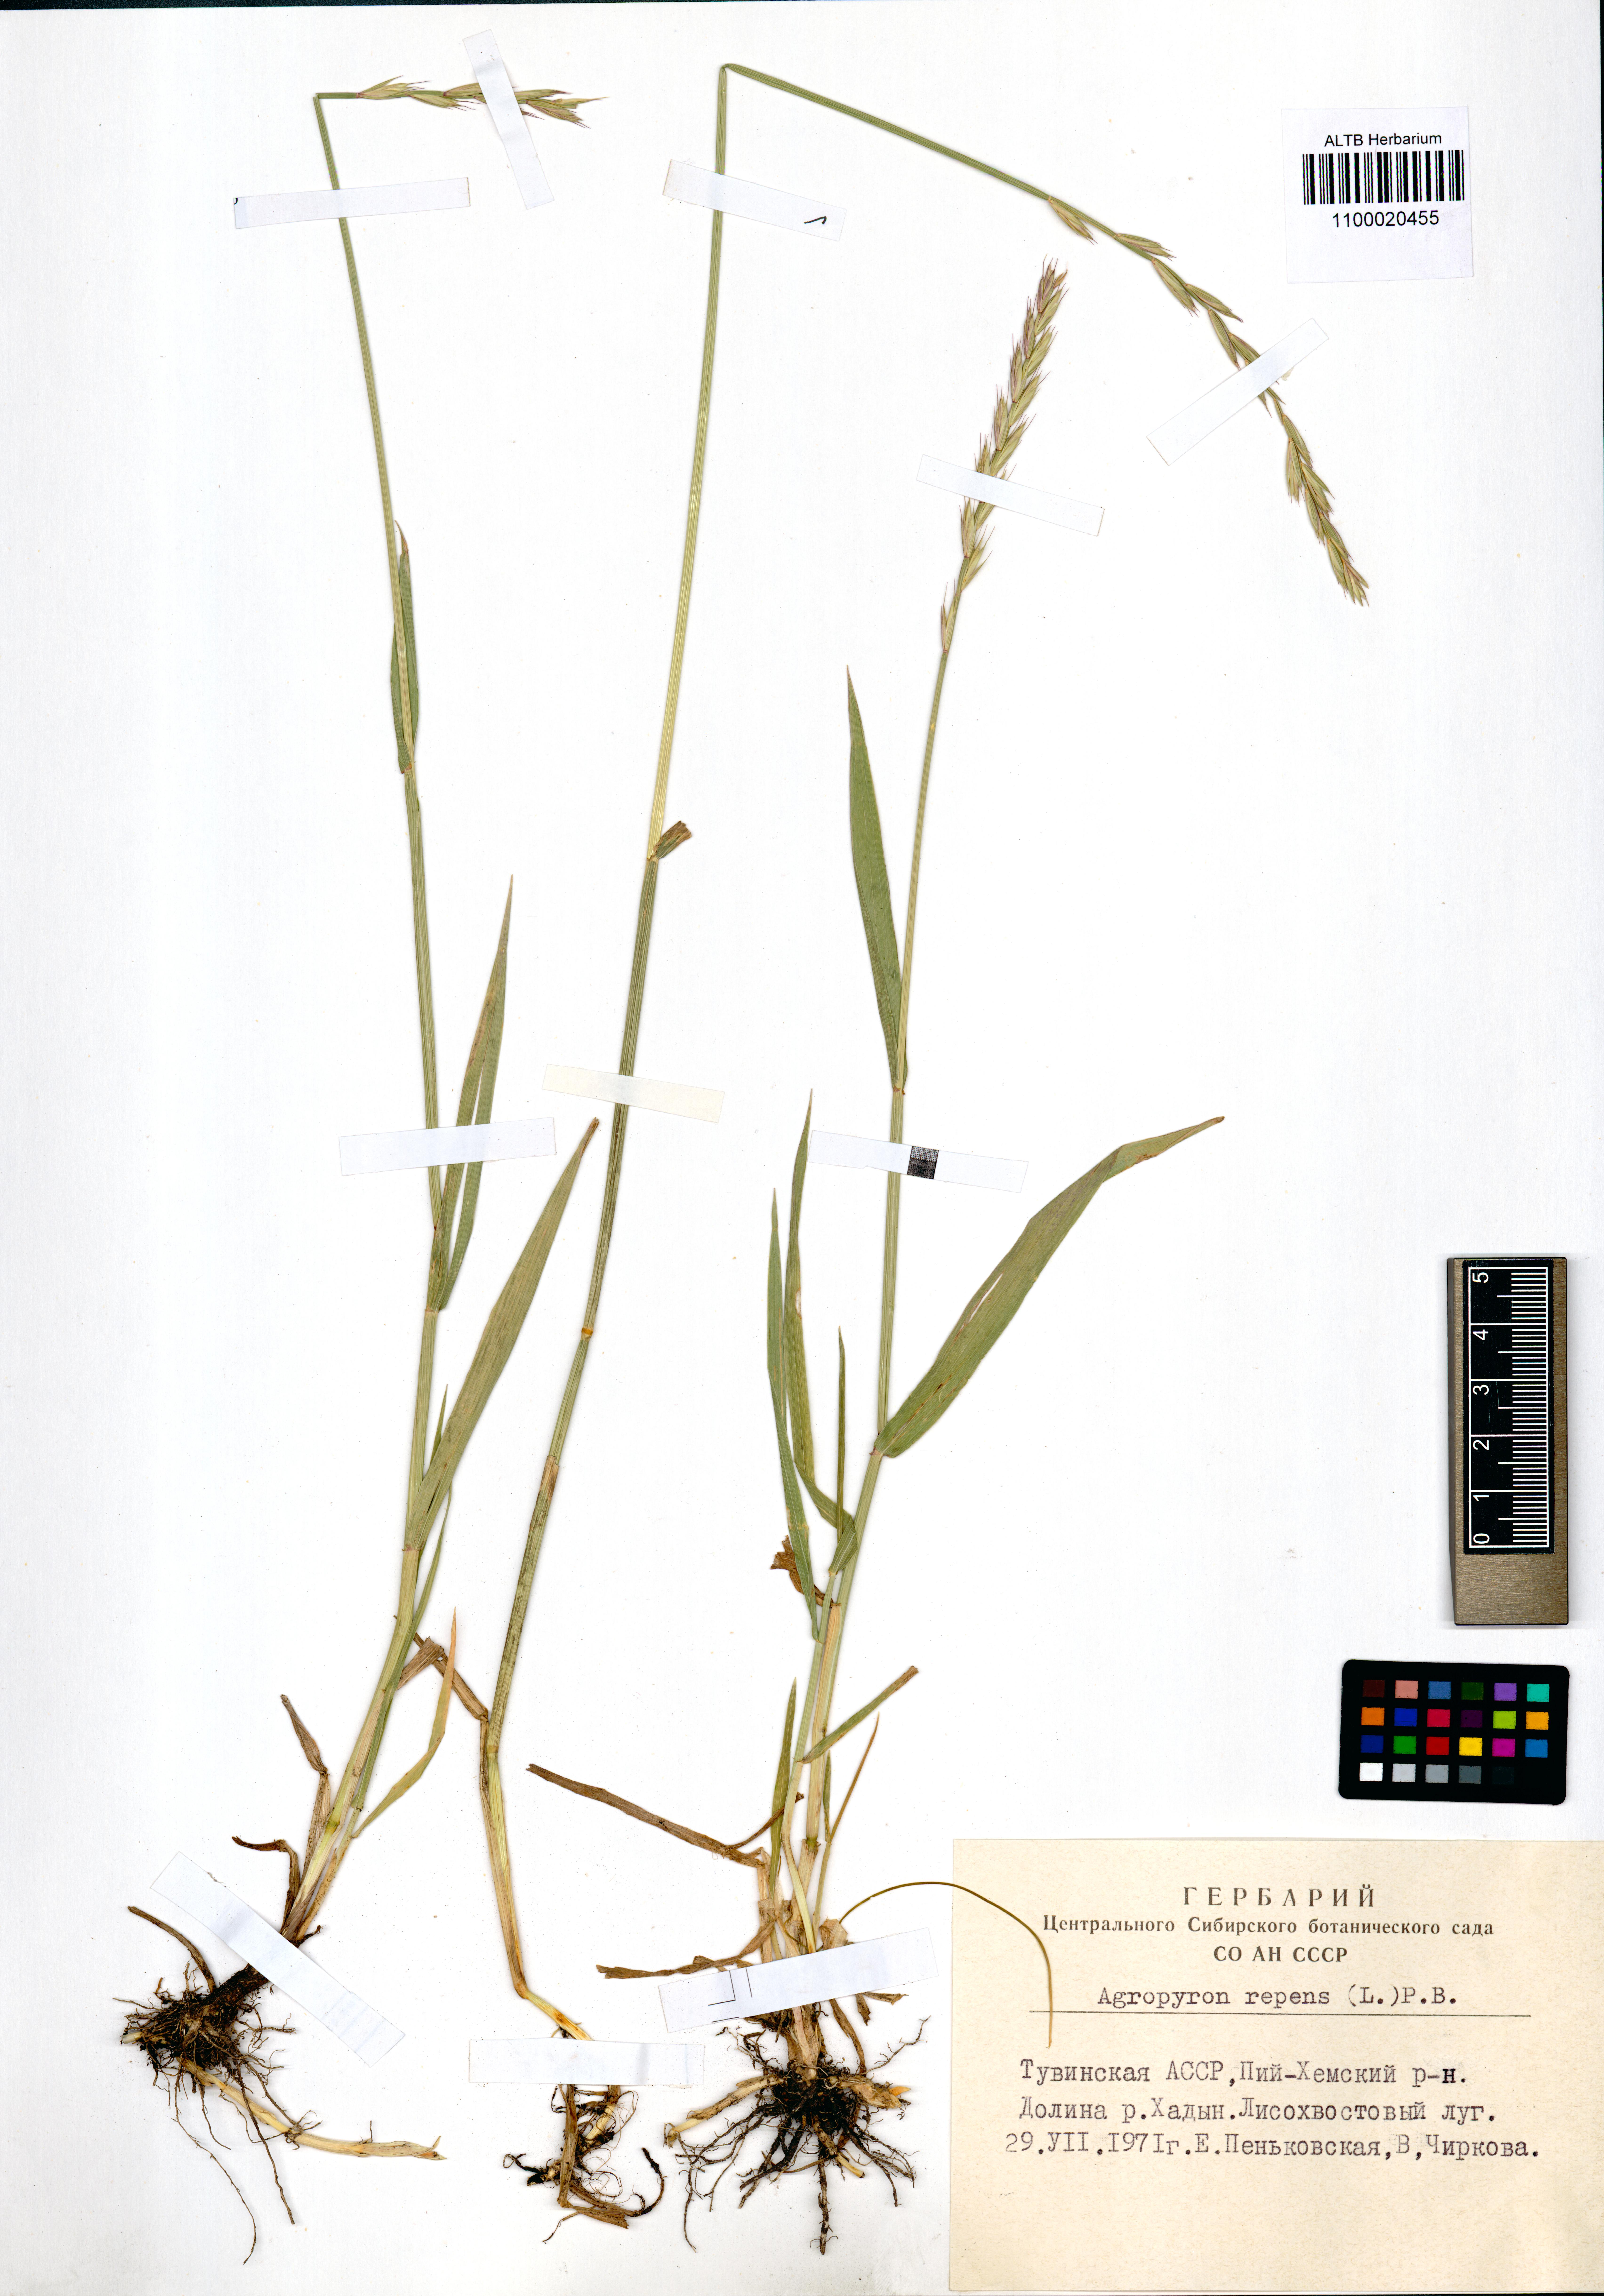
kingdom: Plantae
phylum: Tracheophyta
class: Liliopsida
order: Poales
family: Poaceae
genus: Elymus
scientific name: Elymus repens
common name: Quackgrass
